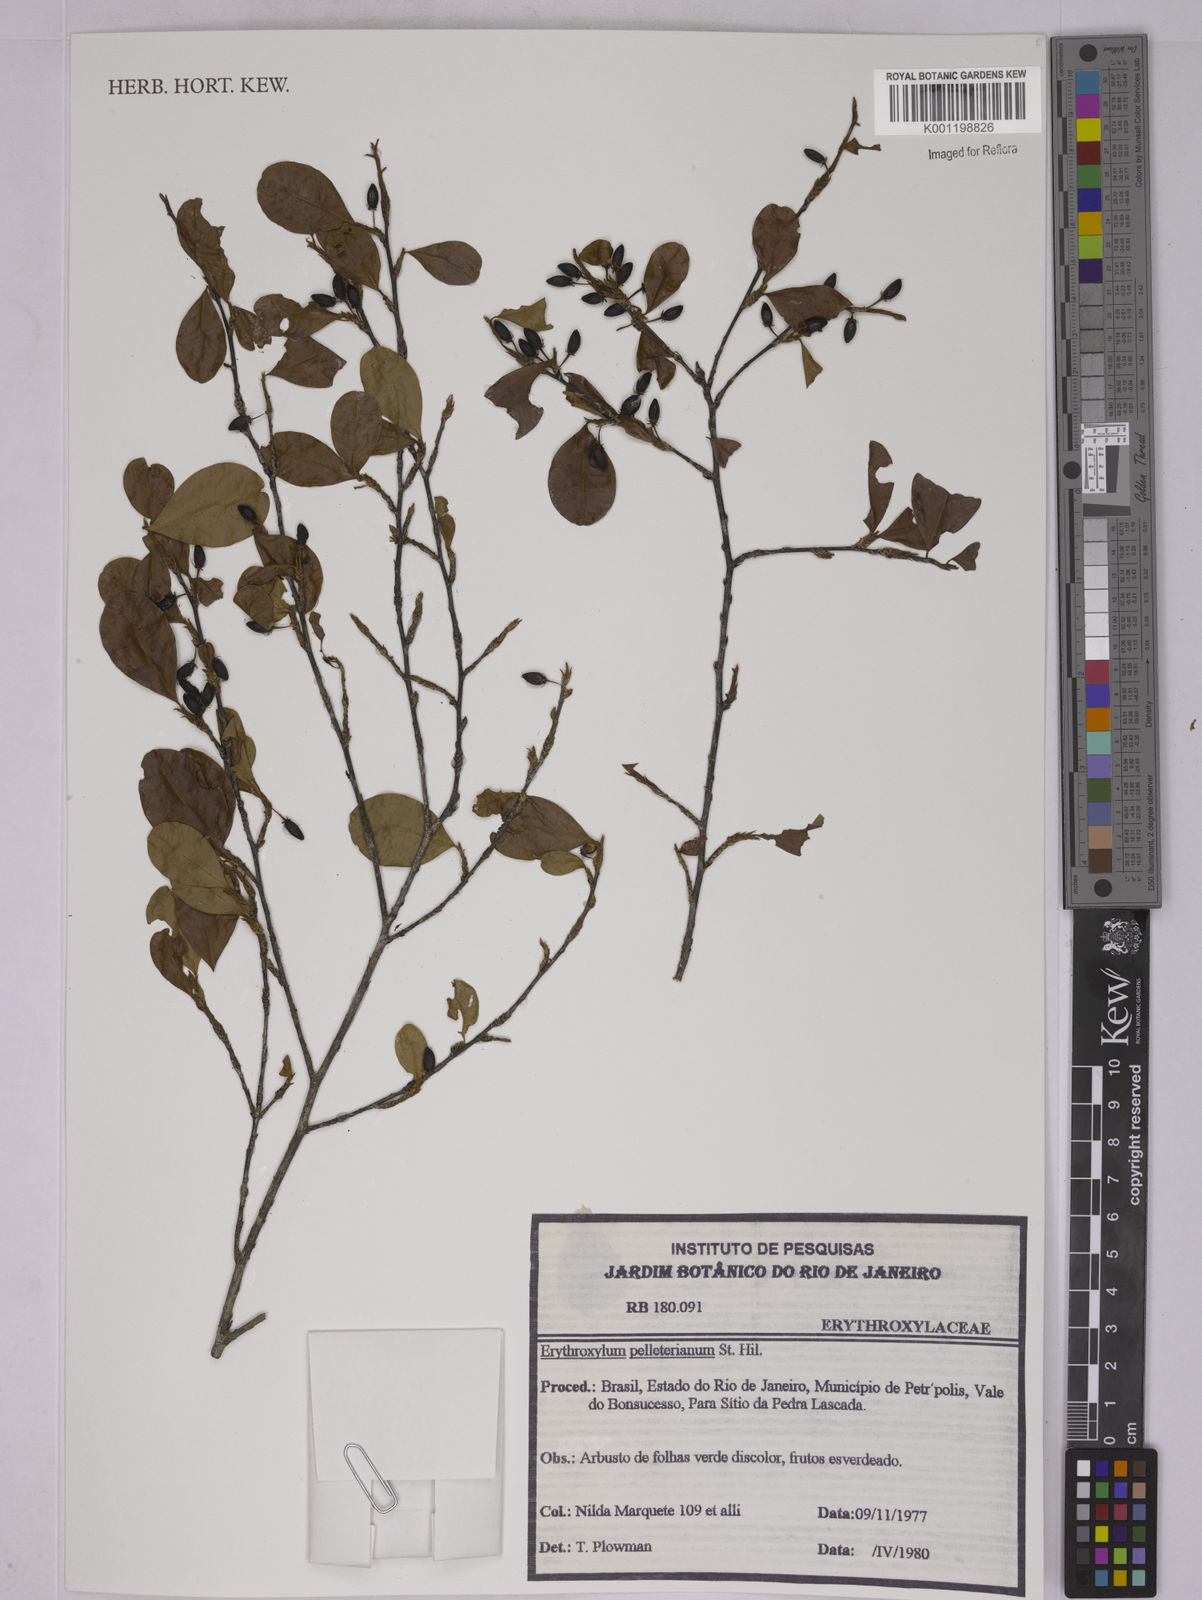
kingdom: Plantae
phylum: Tracheophyta
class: Magnoliopsida
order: Malpighiales
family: Erythroxylaceae
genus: Erythroxylum
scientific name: Erythroxylum pelleterianum
